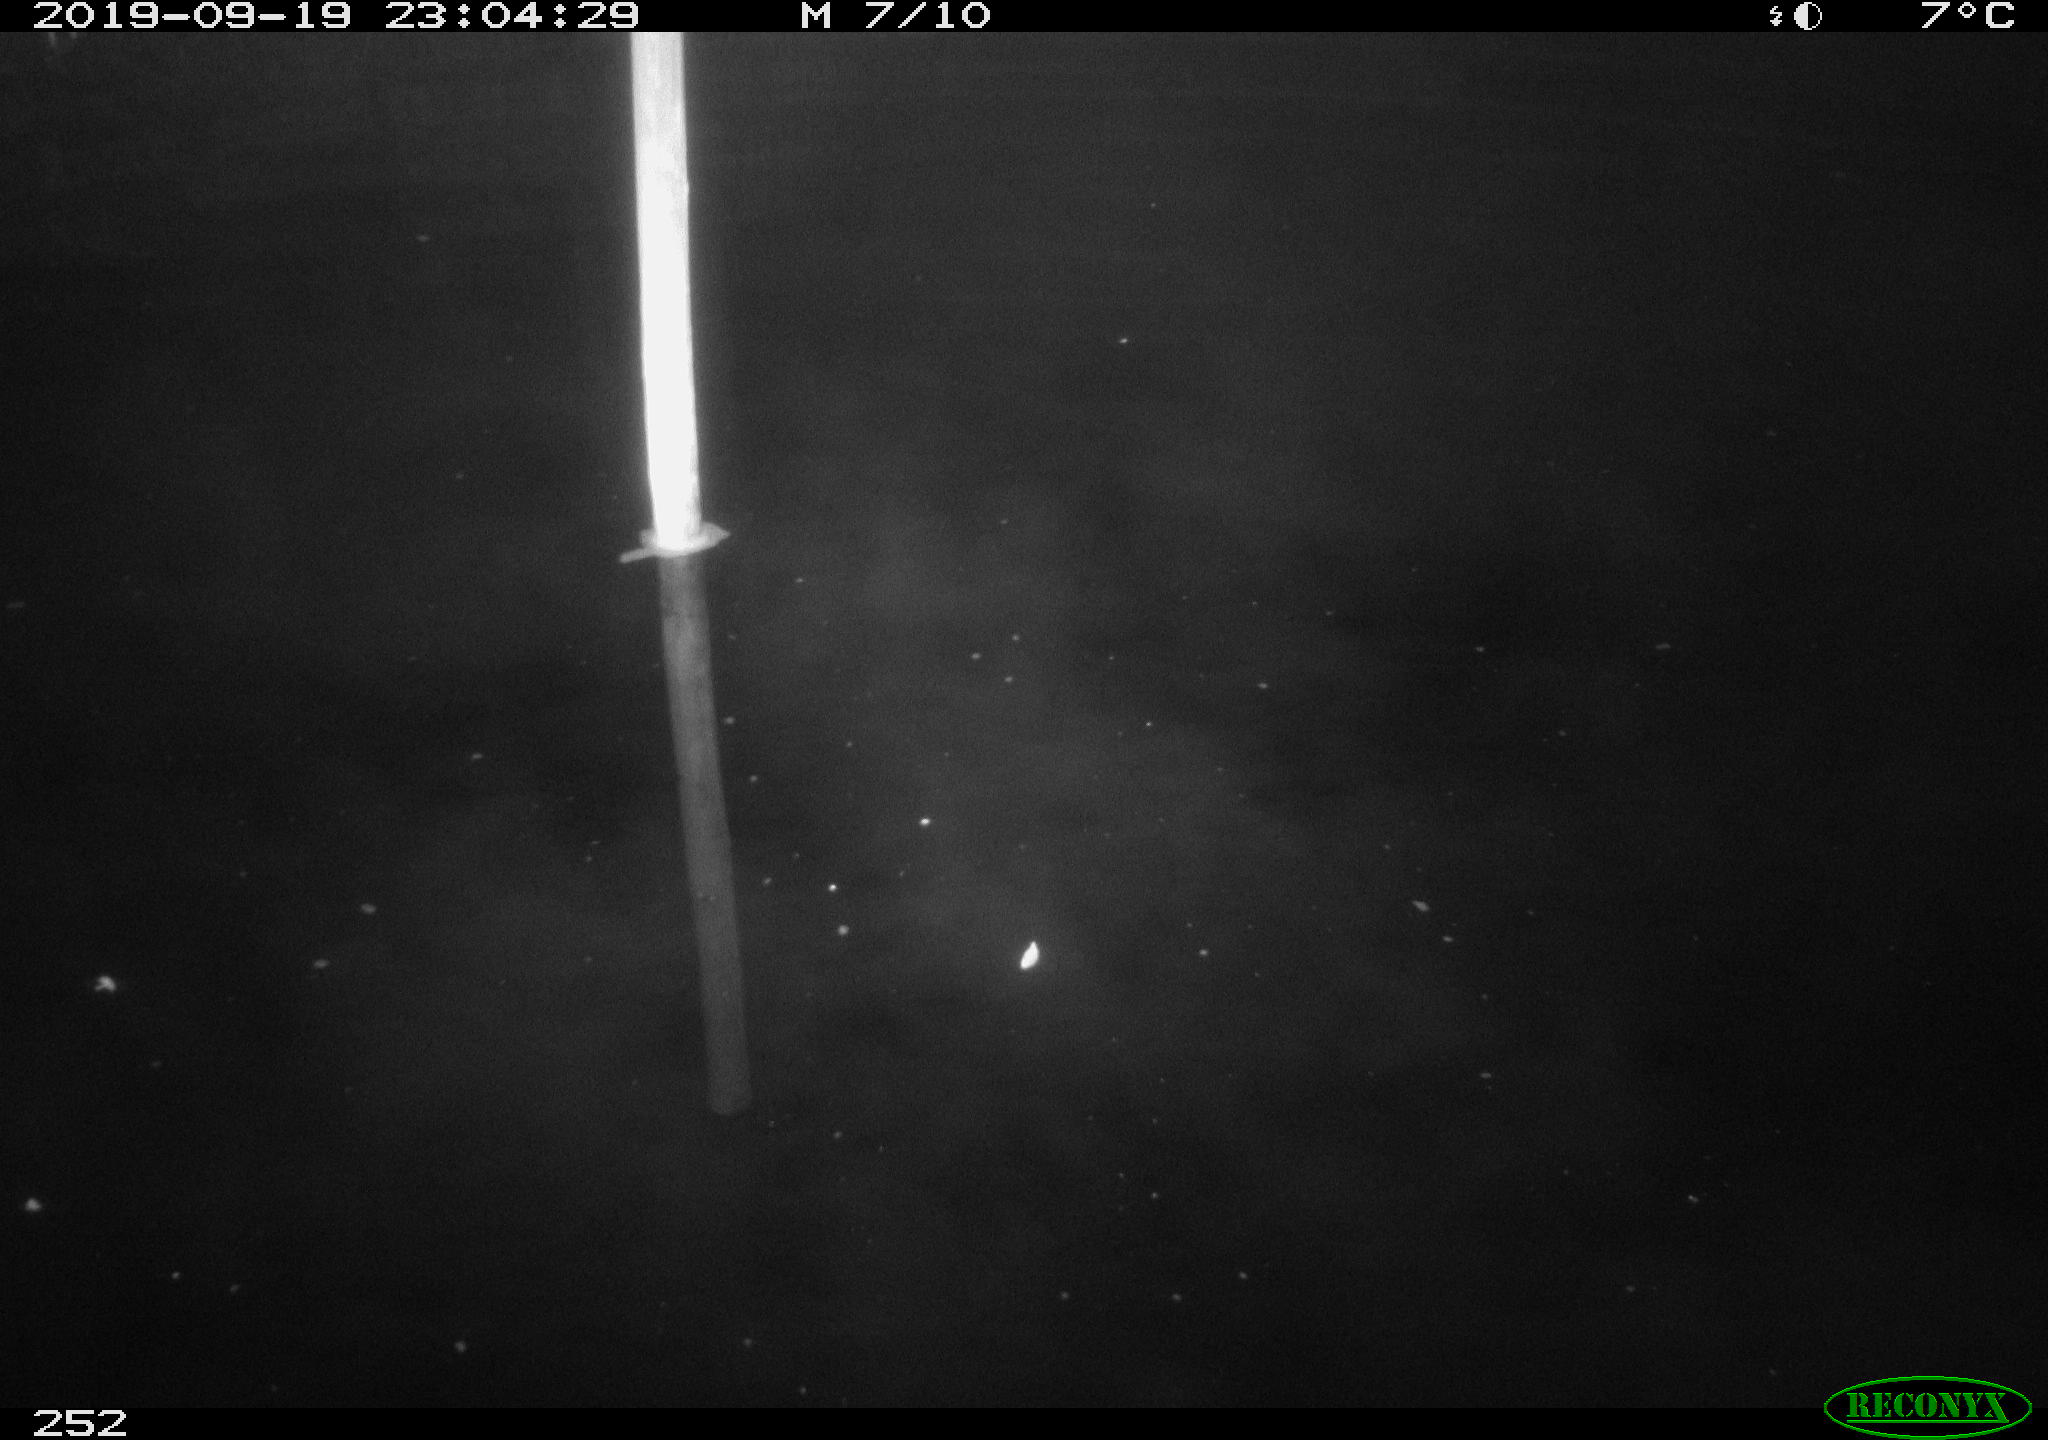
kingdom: Animalia
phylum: Chordata
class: Aves
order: Anseriformes
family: Anatidae
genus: Anas
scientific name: Anas platyrhynchos
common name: Mallard
